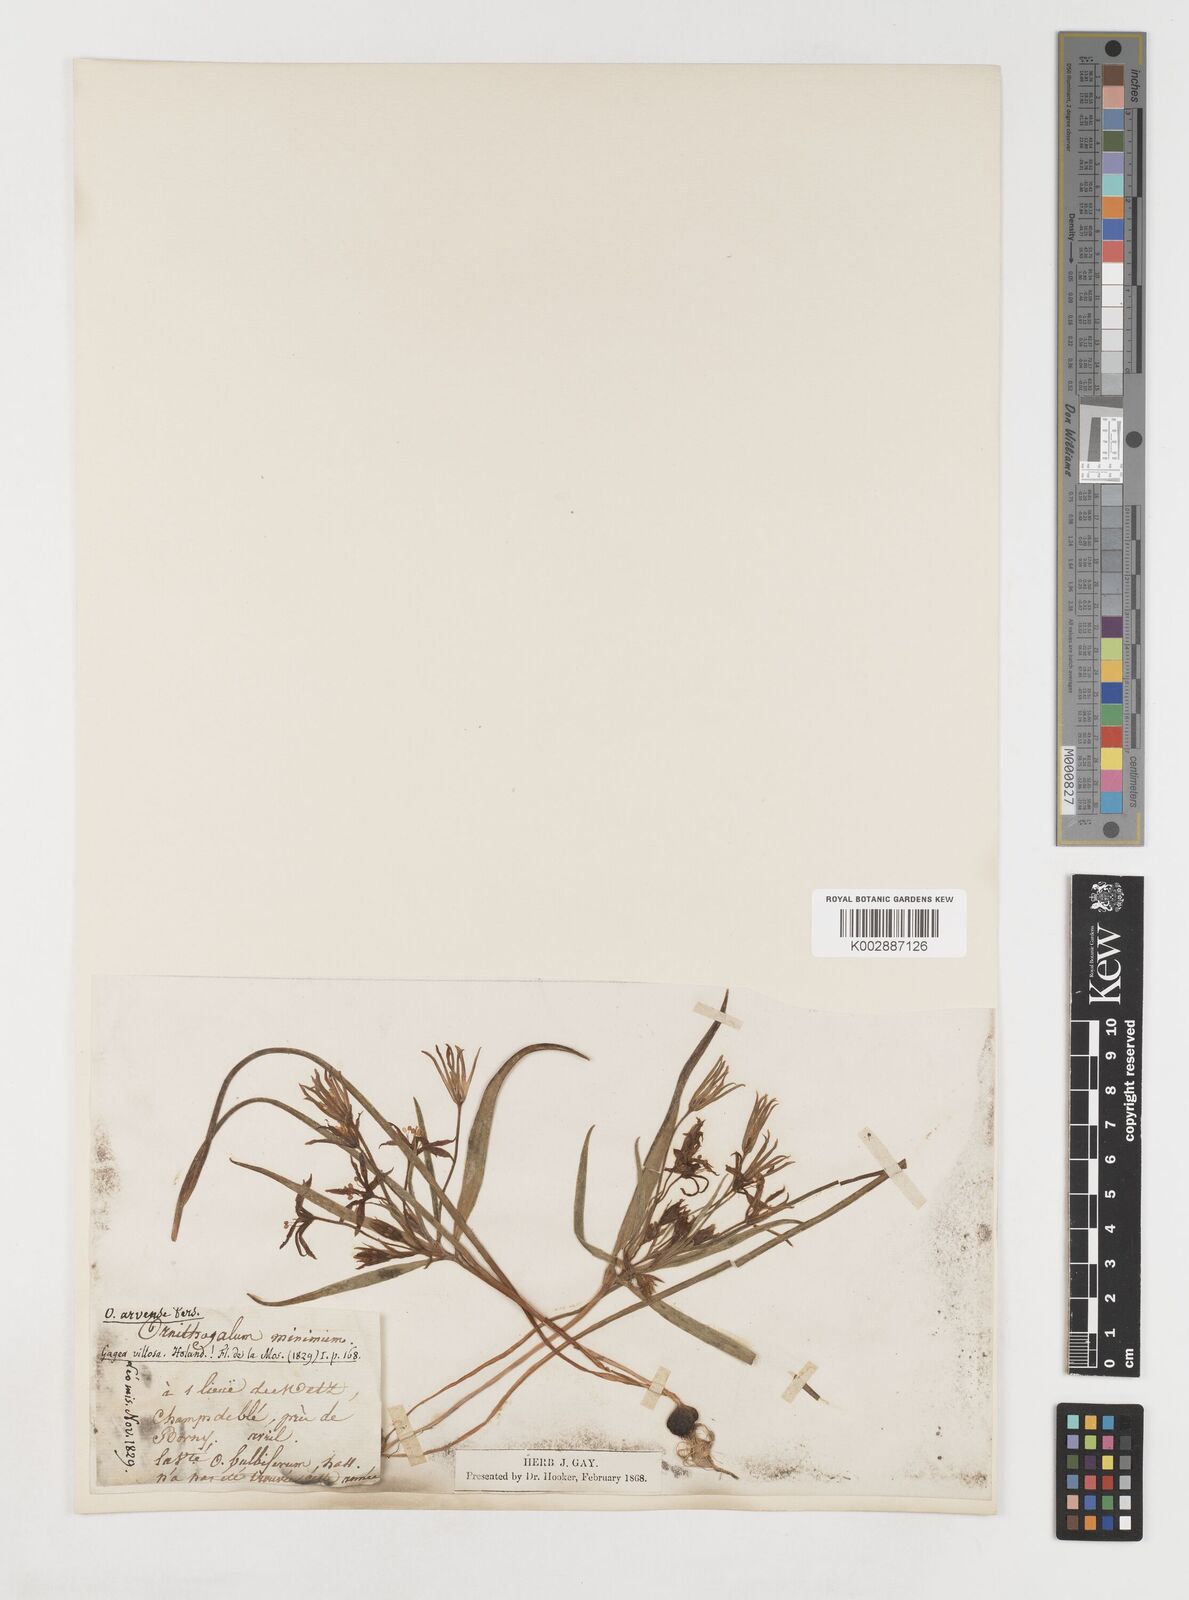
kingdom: Plantae
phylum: Tracheophyta
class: Liliopsida
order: Liliales
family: Liliaceae
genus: Gagea
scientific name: Gagea minima
